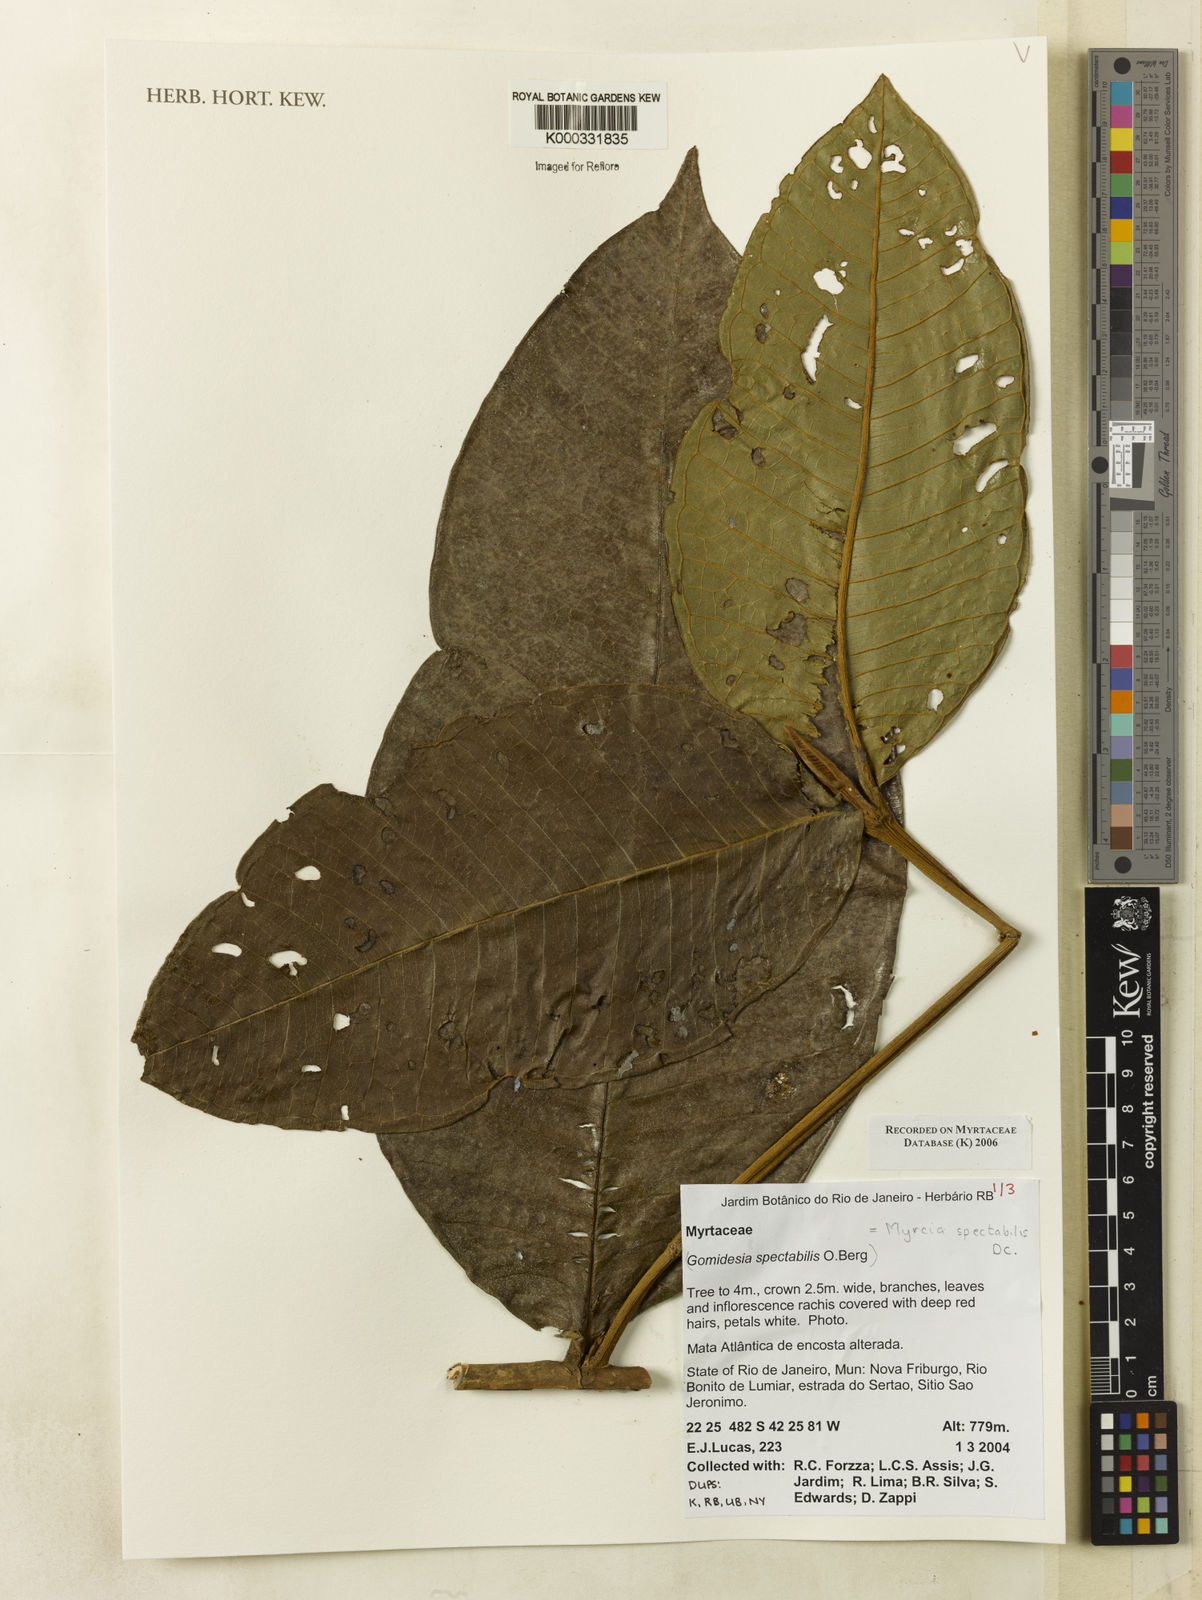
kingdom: Plantae
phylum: Tracheophyta
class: Magnoliopsida
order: Myrtales
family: Myrtaceae
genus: Myrcia
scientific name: Myrcia spectabilis
